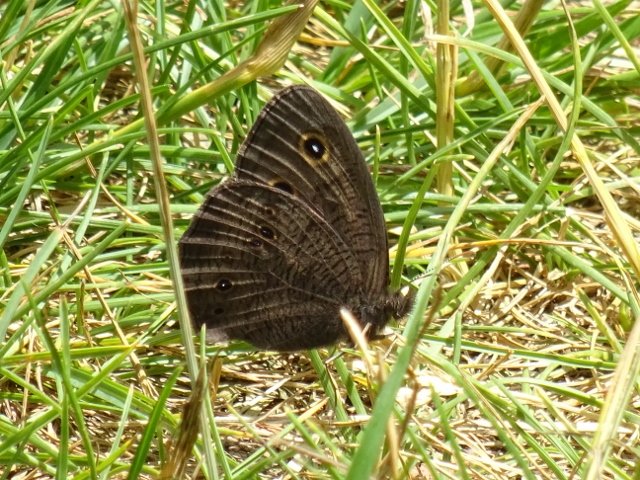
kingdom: Animalia
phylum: Arthropoda
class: Insecta
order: Lepidoptera
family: Nymphalidae
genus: Cercyonis
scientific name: Cercyonis pegala
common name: Common Wood-Nymph
